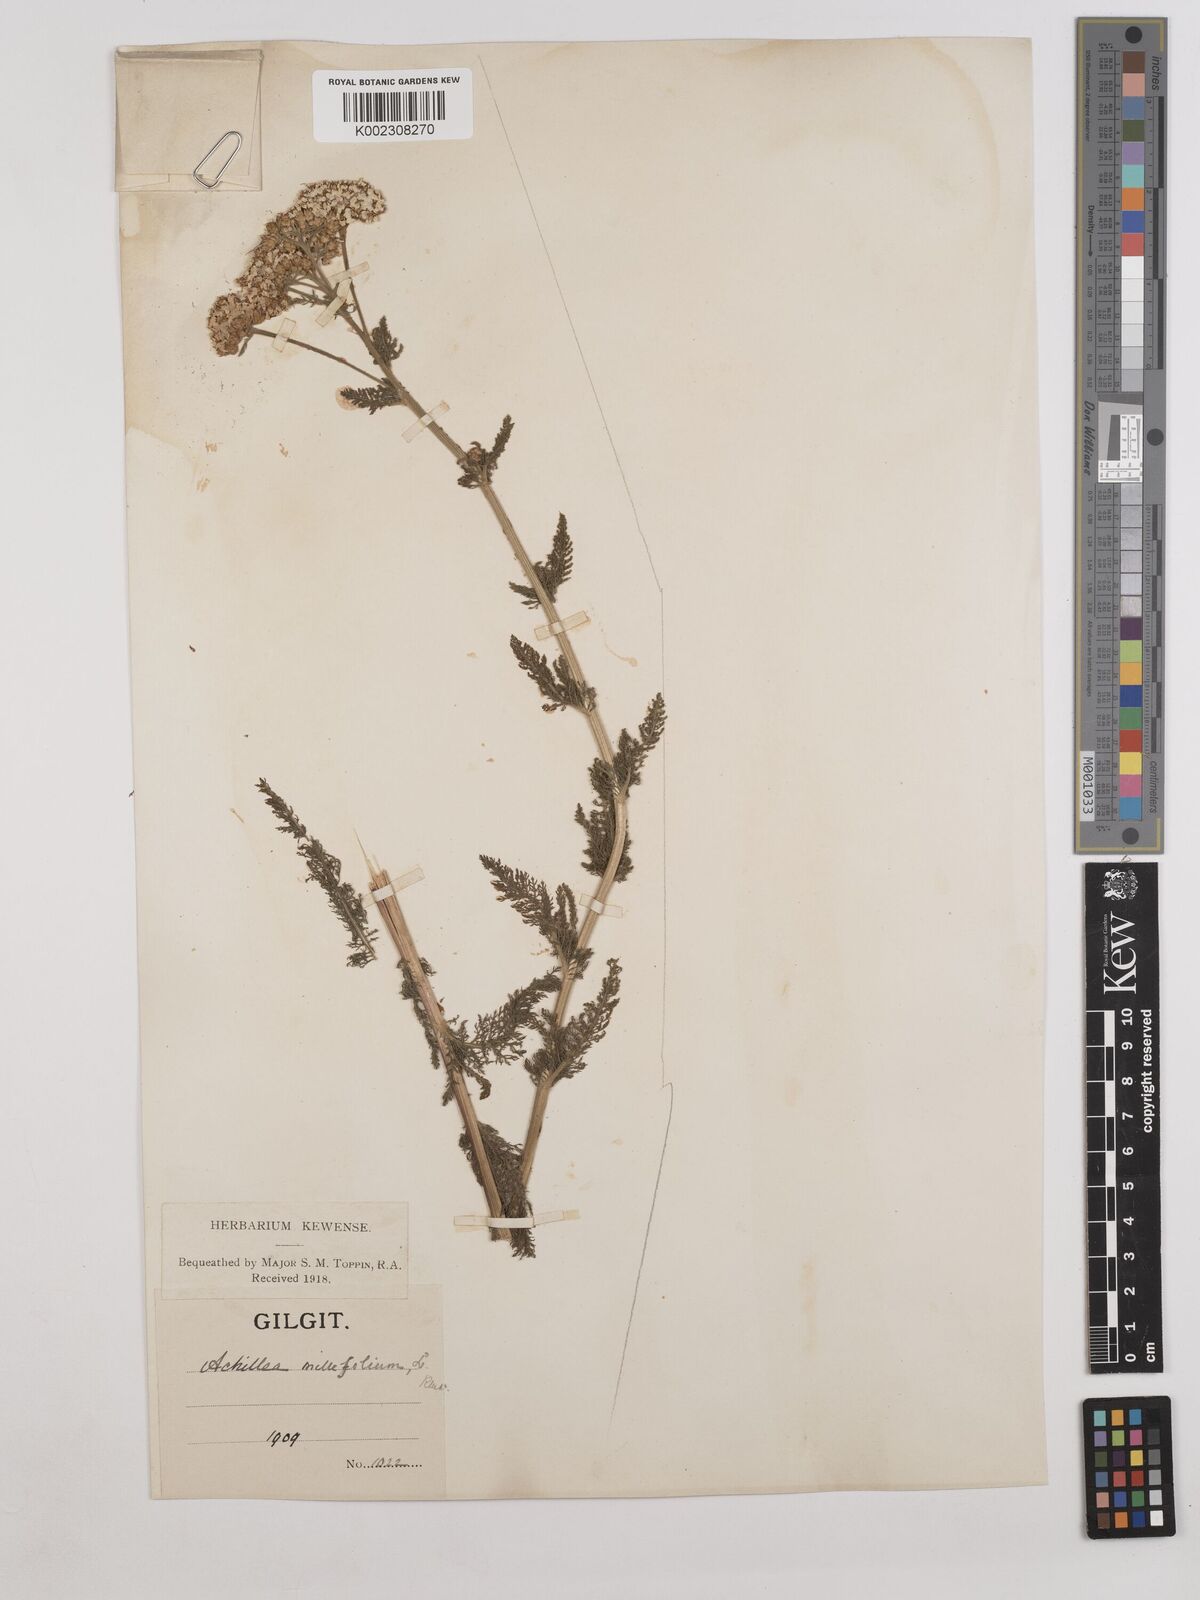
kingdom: Plantae
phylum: Tracheophyta
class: Magnoliopsida
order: Asterales
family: Asteraceae
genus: Achillea
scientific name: Achillea millefolium
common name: Yarrow
